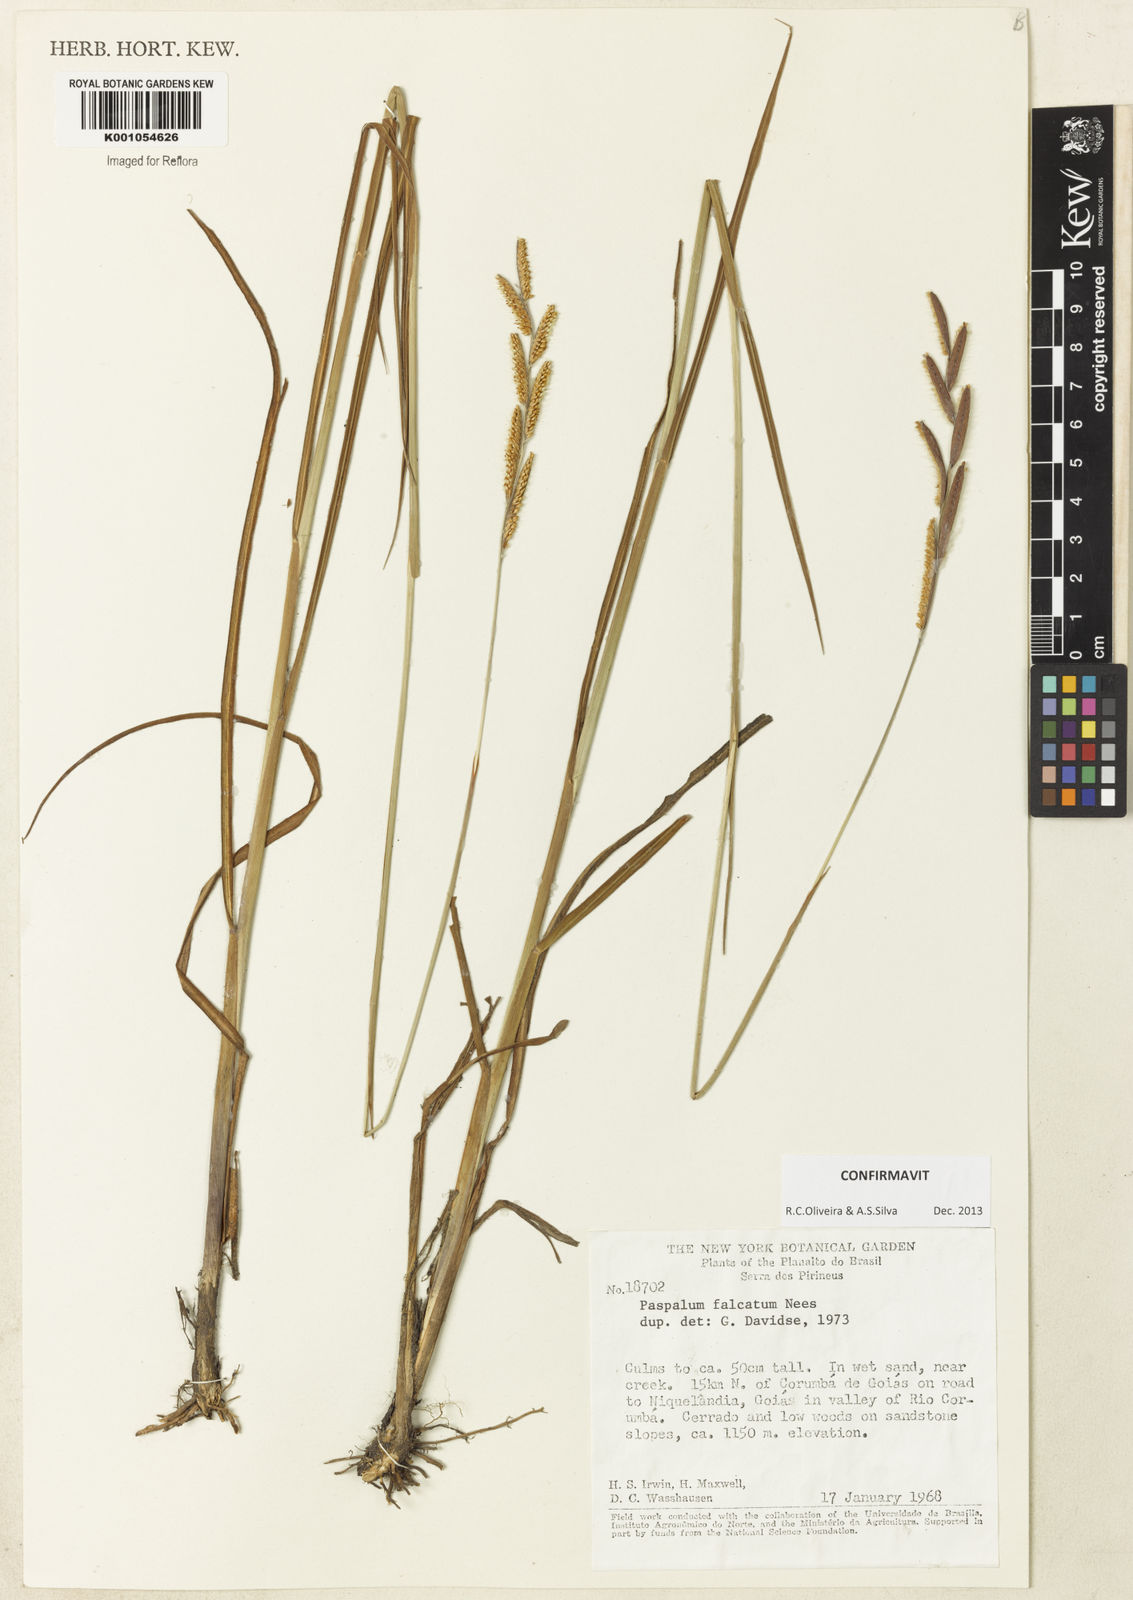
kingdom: Plantae
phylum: Tracheophyta
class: Liliopsida
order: Poales
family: Poaceae
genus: Paspalum
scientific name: Paspalum falcatum
